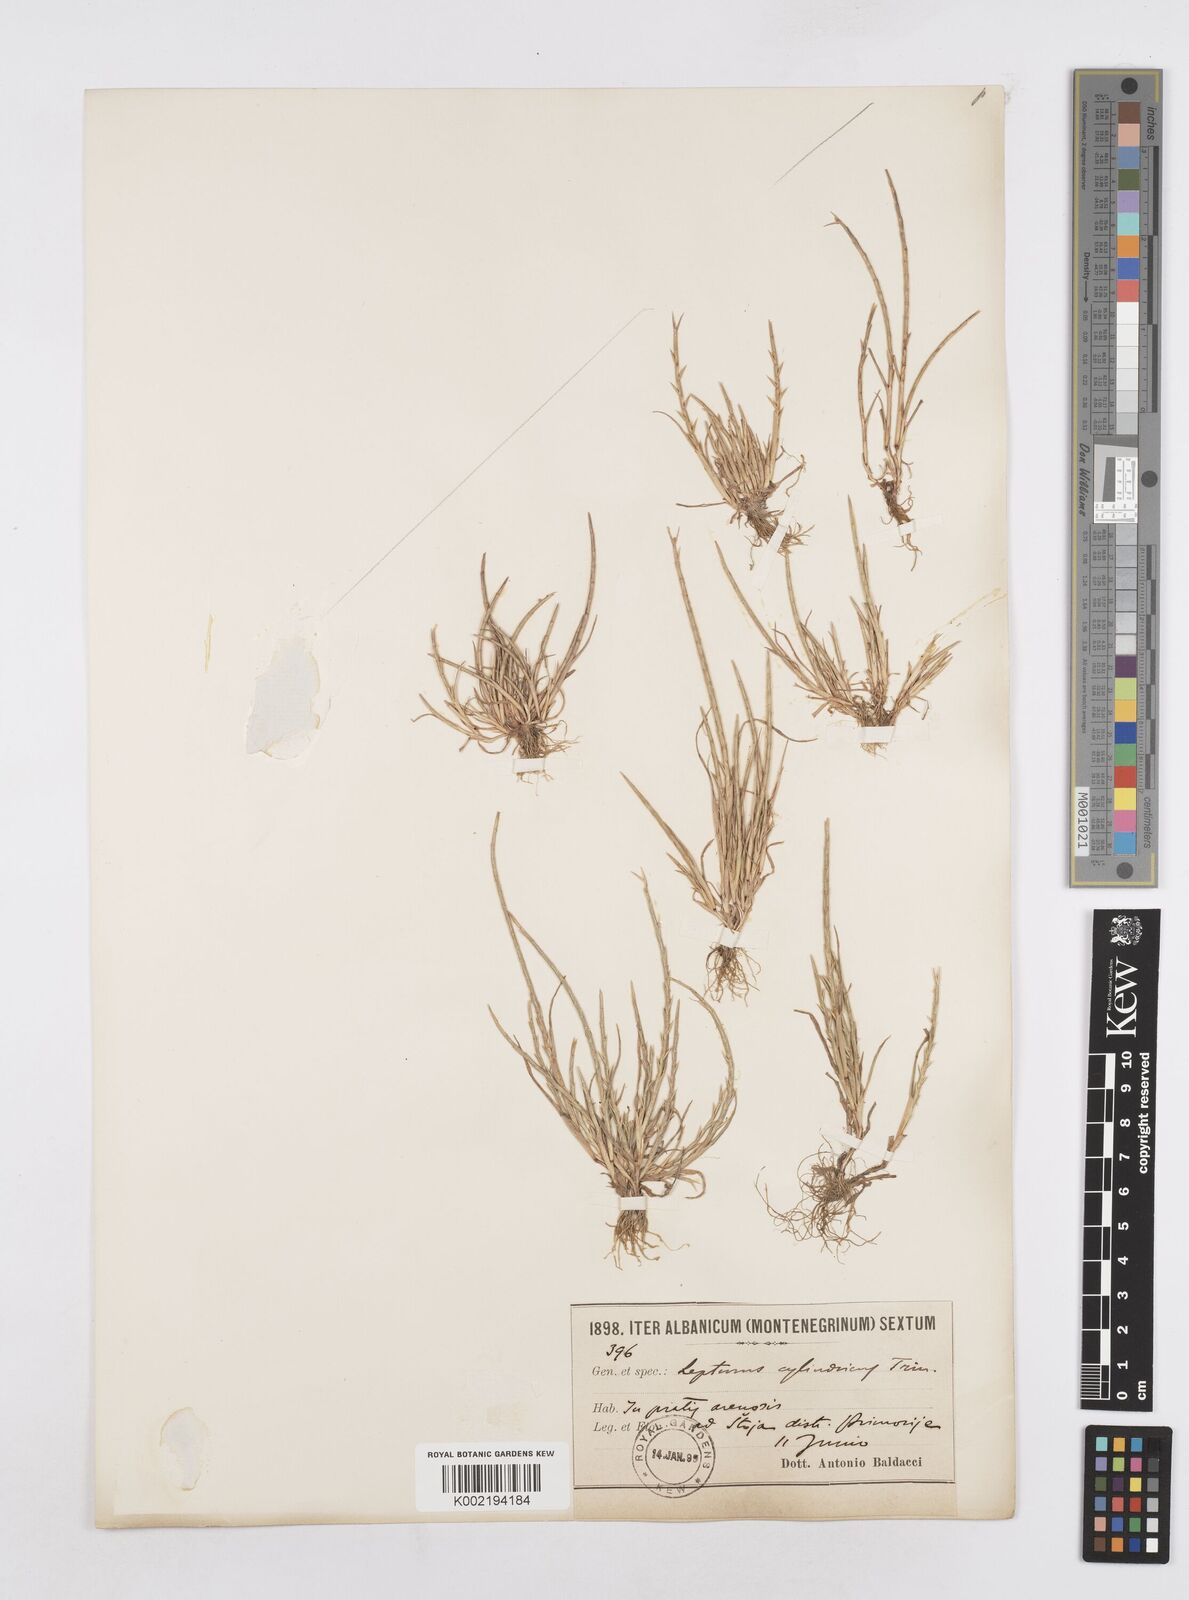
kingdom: Plantae
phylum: Tracheophyta
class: Liliopsida
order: Poales
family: Poaceae
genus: Parapholis
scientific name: Parapholis cylindrica
